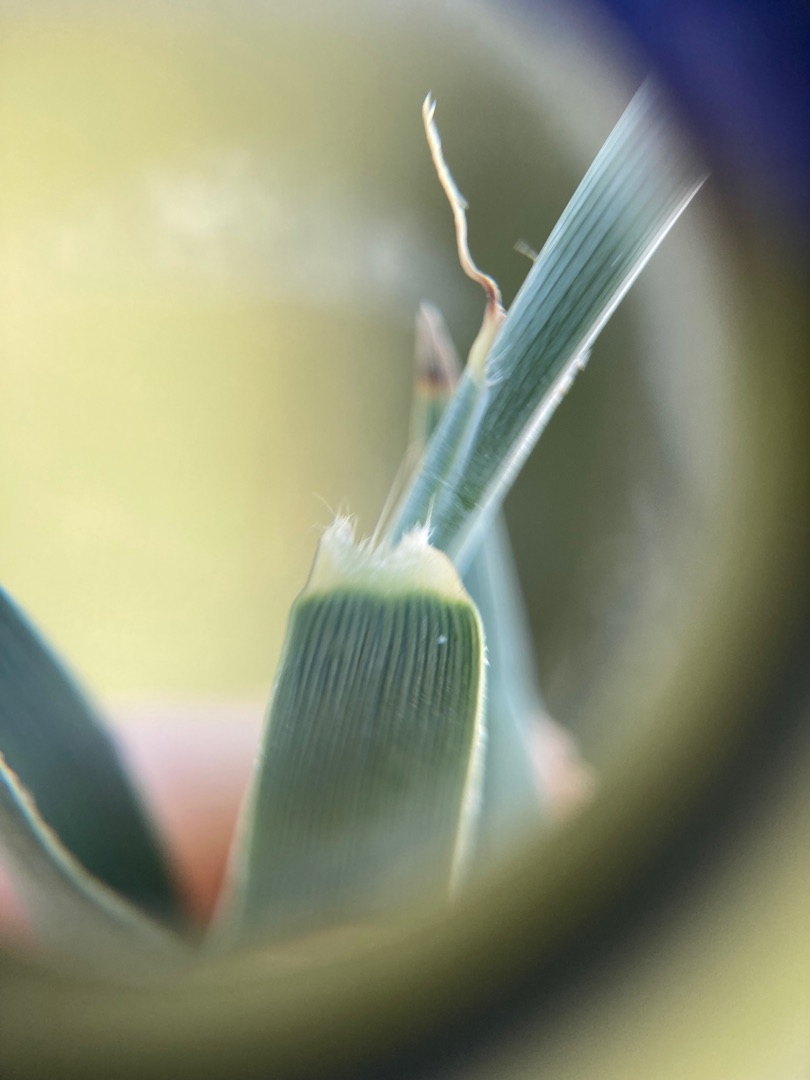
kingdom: Plantae
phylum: Tracheophyta
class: Liliopsida
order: Poales
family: Poaceae
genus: Phragmites
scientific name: Phragmites australis
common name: Tagrør
